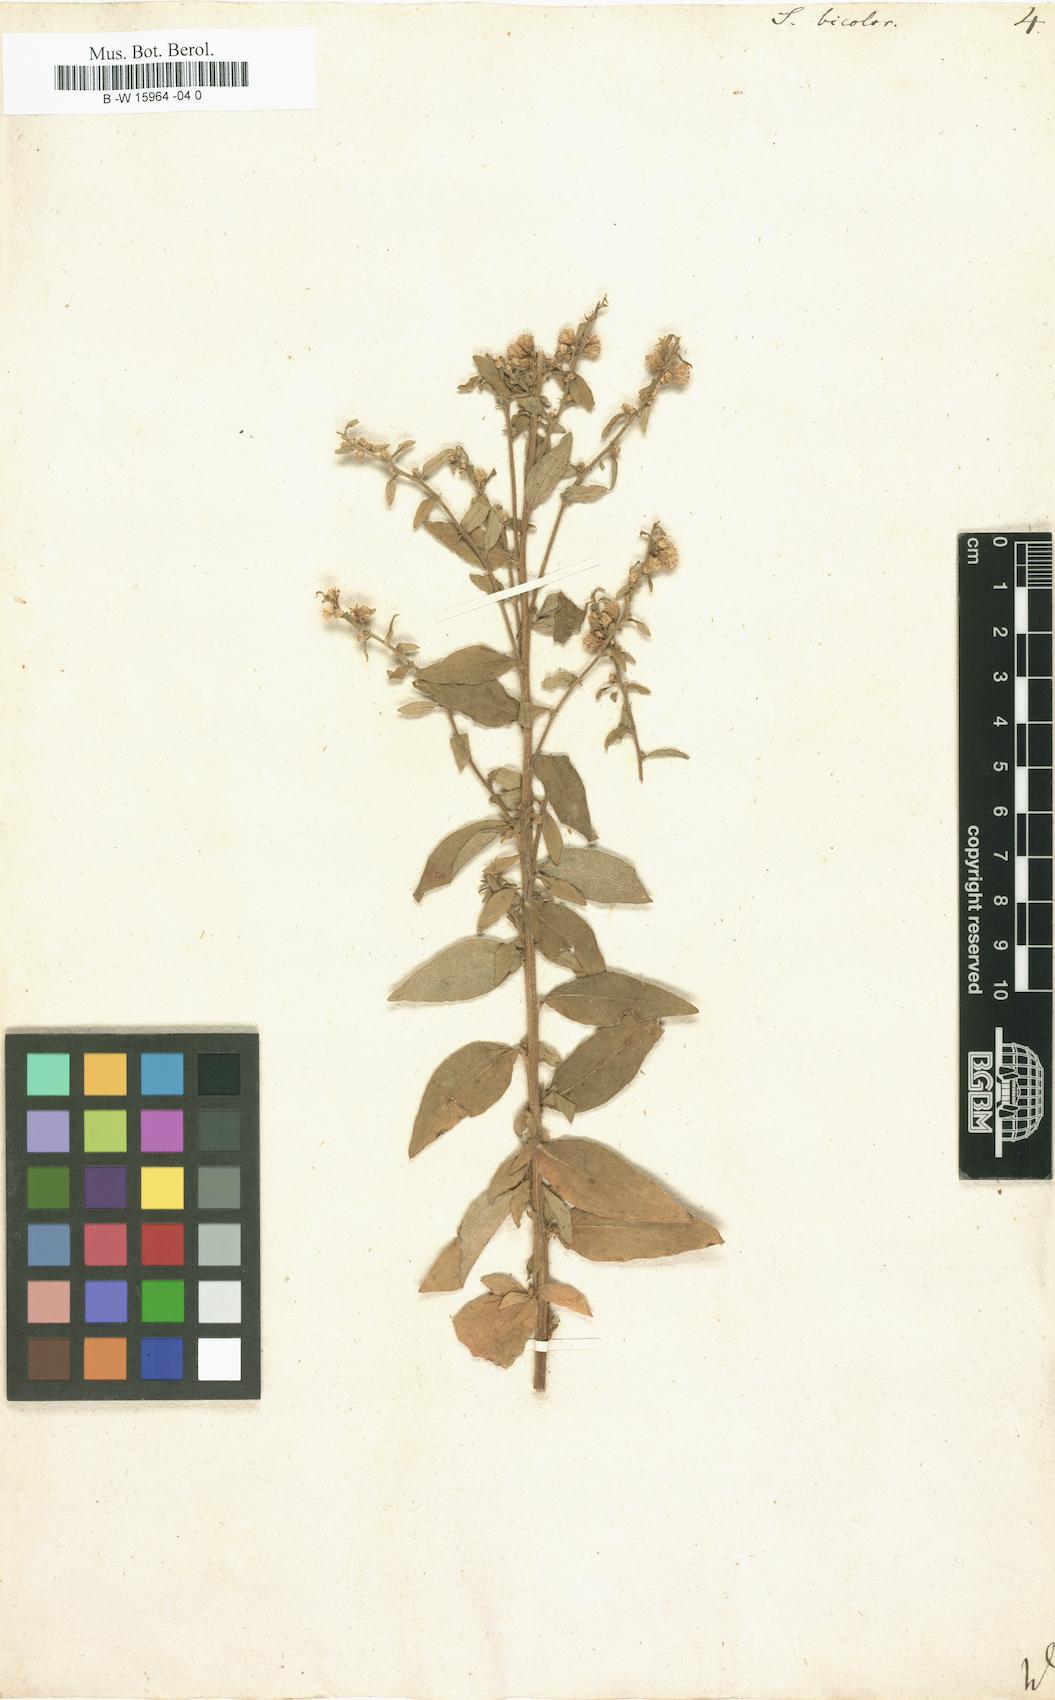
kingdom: Plantae
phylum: Tracheophyta
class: Magnoliopsida
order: Asterales
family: Asteraceae
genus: Solidago
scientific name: Solidago bicolor
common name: Silverrod
